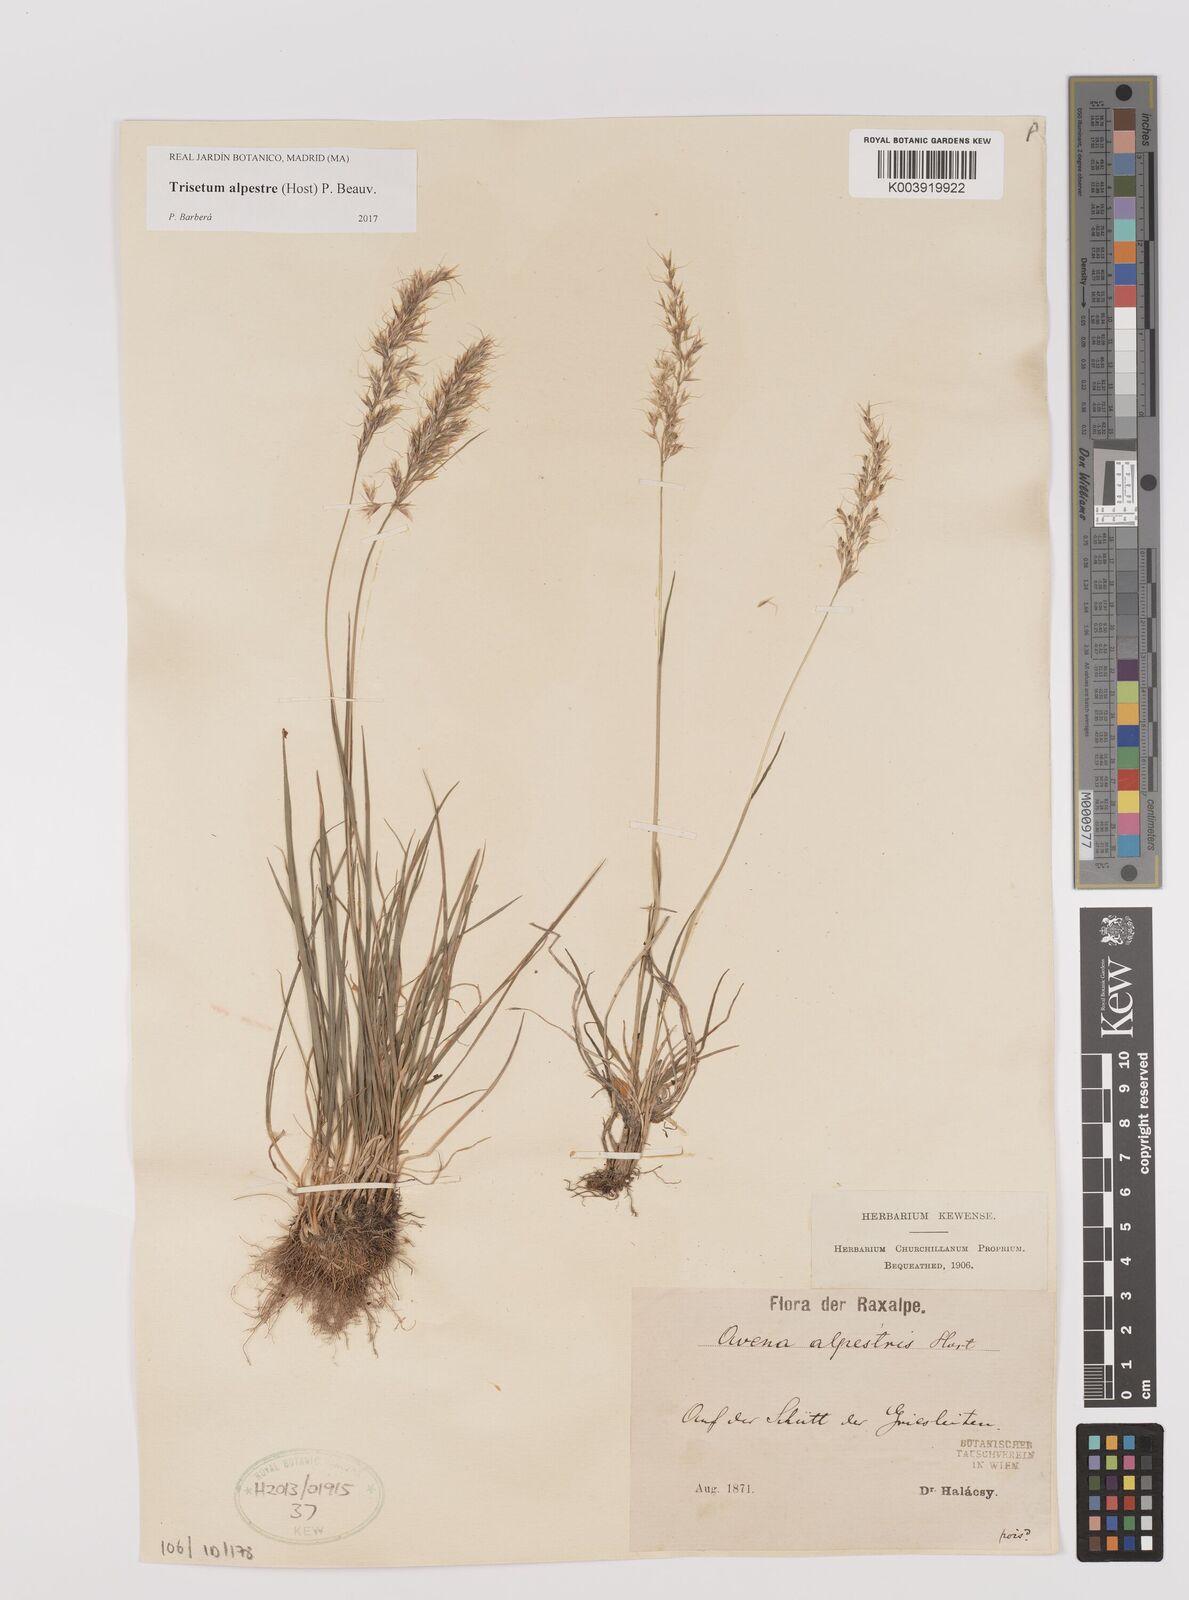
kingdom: Plantae
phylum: Tracheophyta
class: Liliopsida
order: Poales
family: Poaceae
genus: Trisetum
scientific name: Trisetum alpestre
